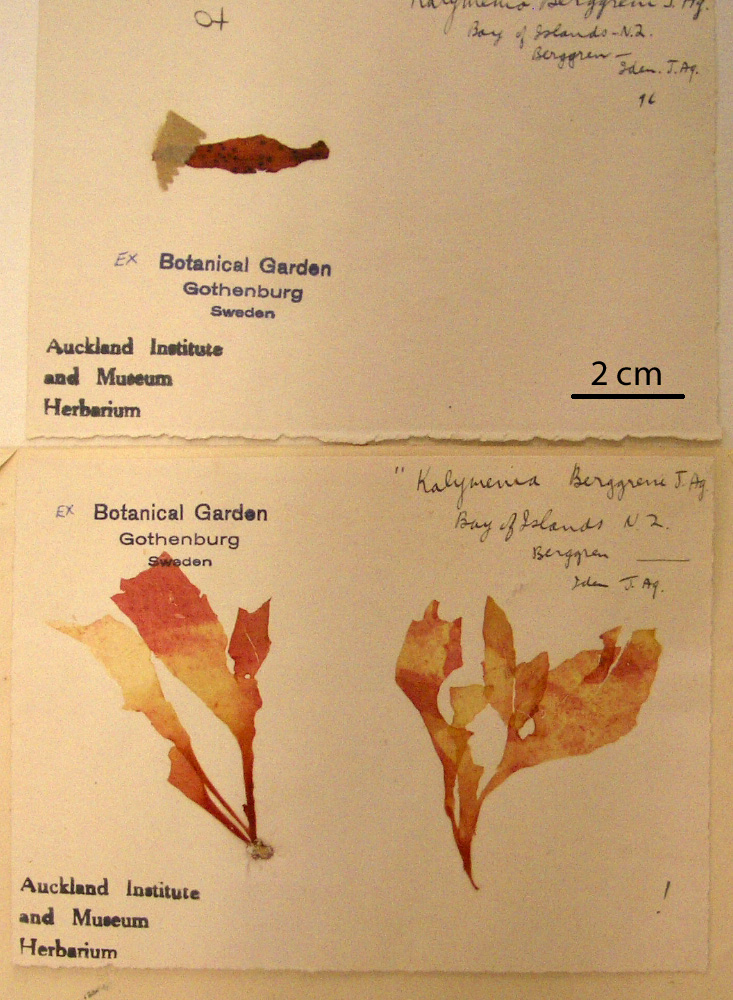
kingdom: Plantae
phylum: Rhodophyta
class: Florideophyceae
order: Gigartinales
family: Kallymeniaceae
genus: Psaromenia
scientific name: Psaromenia berggrenii
